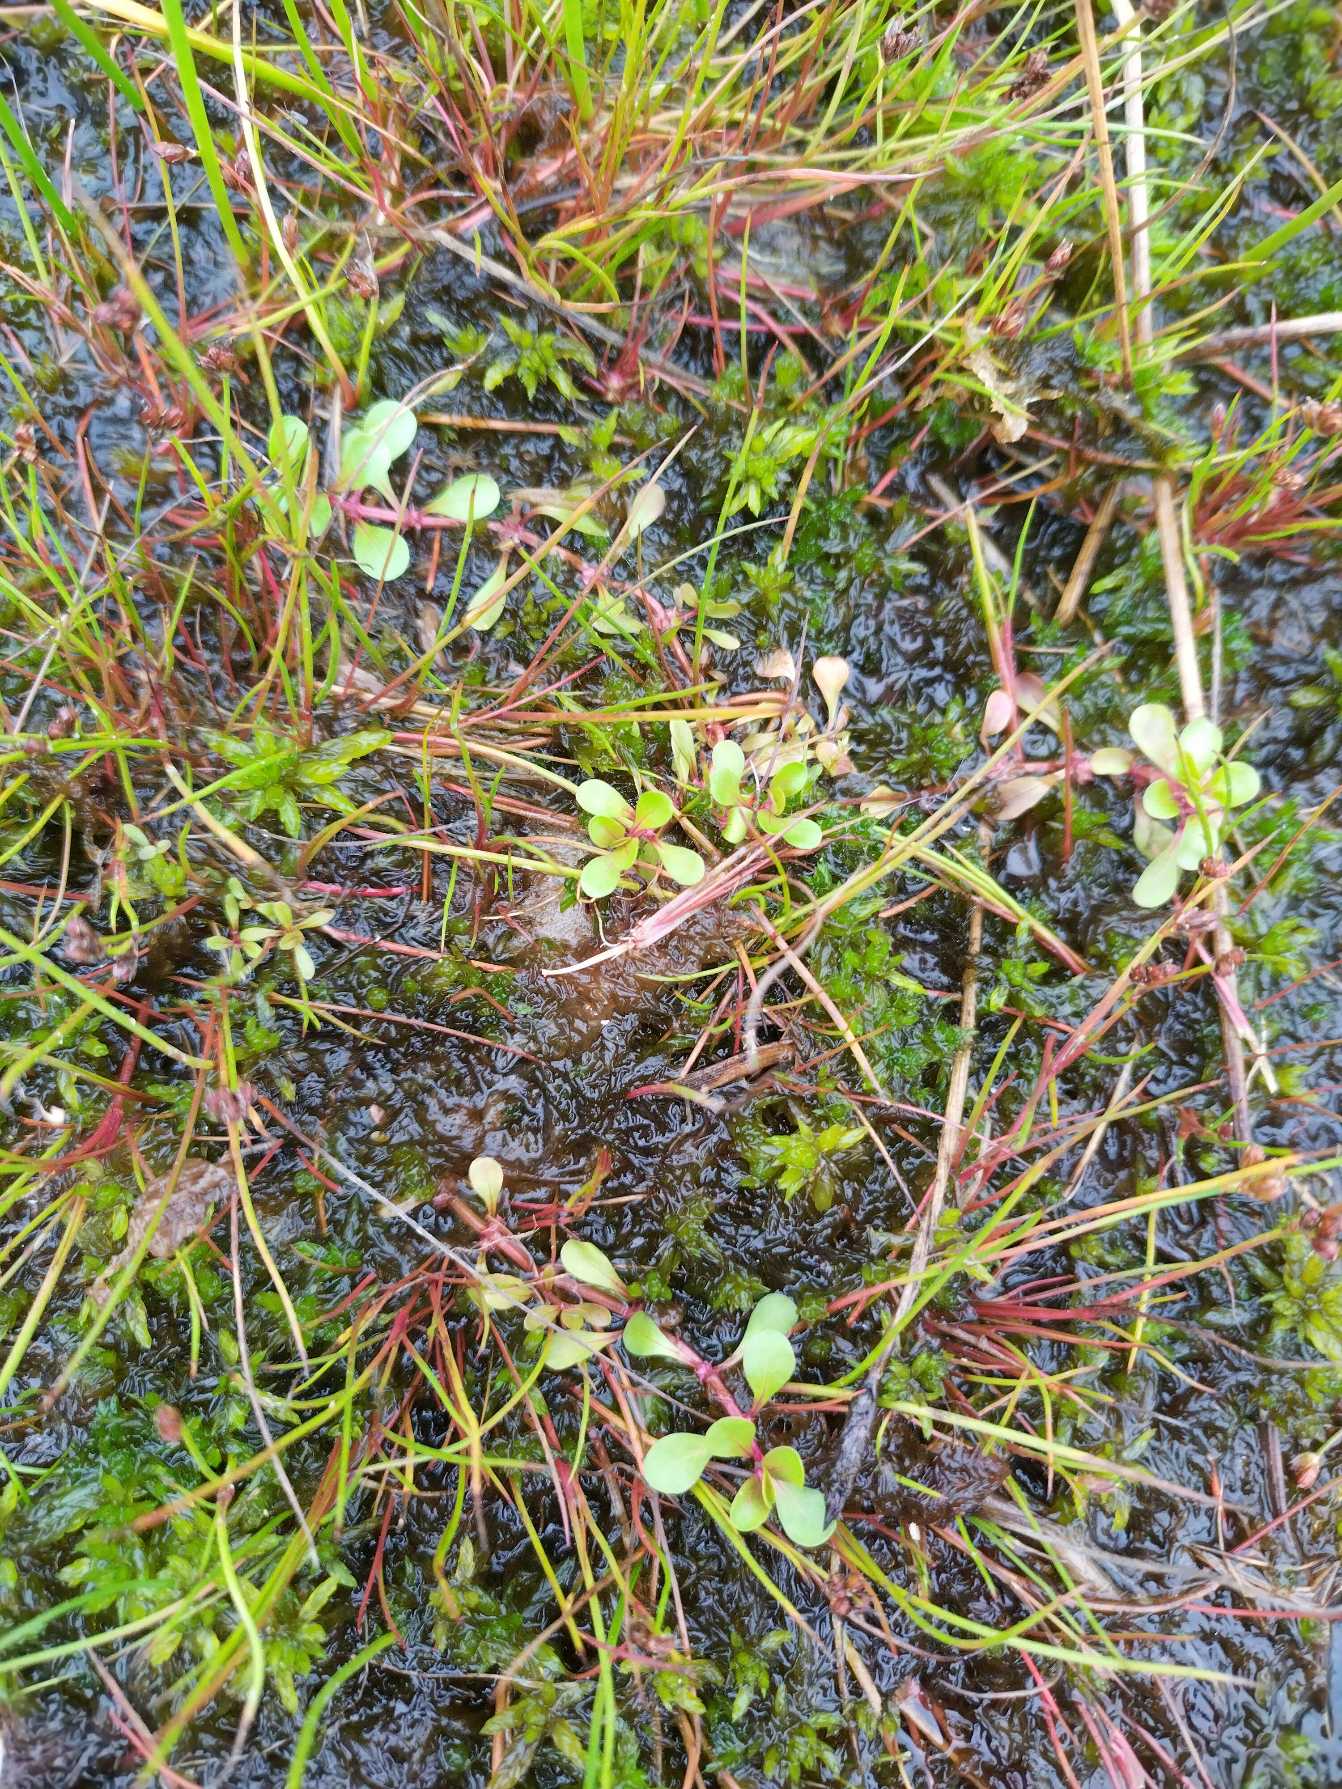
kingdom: Plantae
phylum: Tracheophyta
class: Magnoliopsida
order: Myrtales
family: Lythraceae
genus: Lythrum
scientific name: Lythrum portula
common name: Vandportulak
